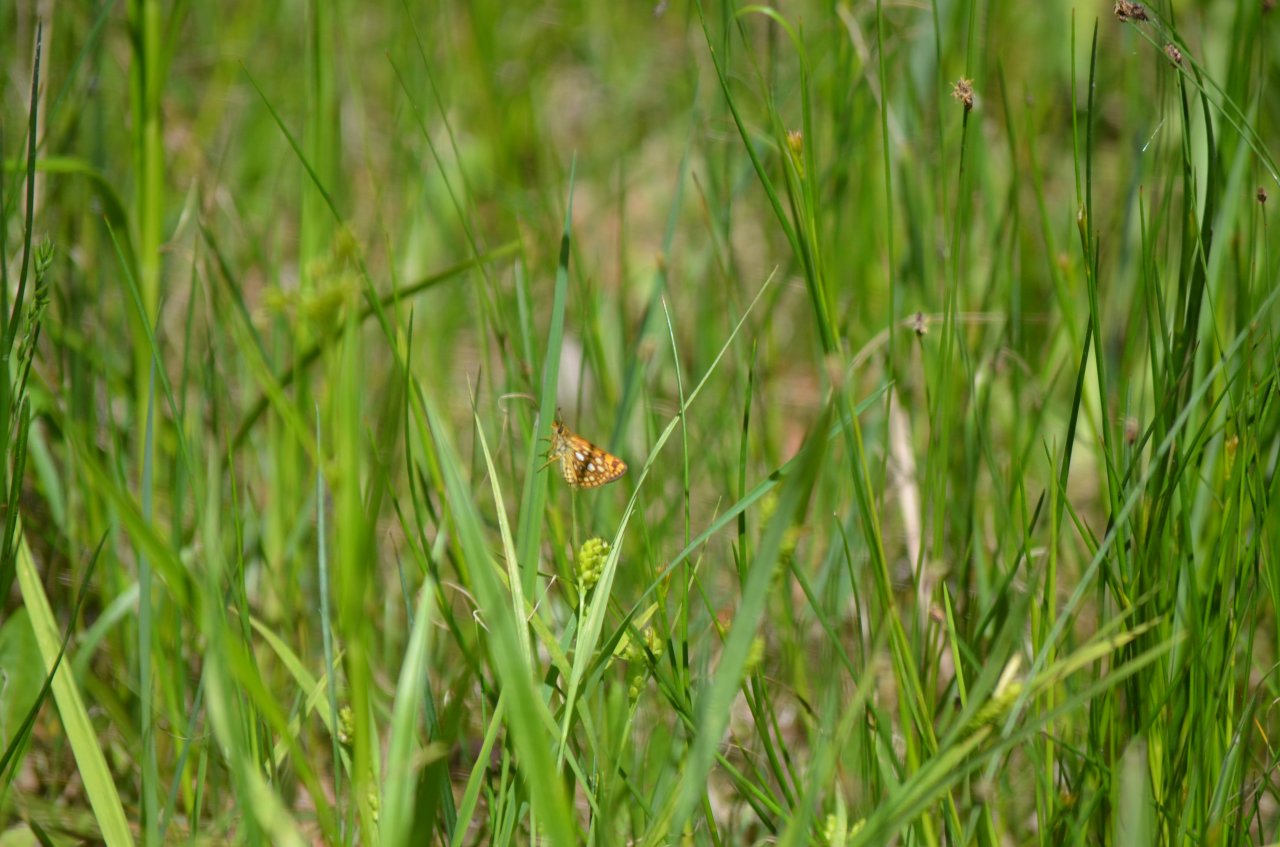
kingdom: Animalia
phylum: Arthropoda
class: Insecta
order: Lepidoptera
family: Hesperiidae
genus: Carterocephalus
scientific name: Carterocephalus palaemon
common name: Chequered Skipper
